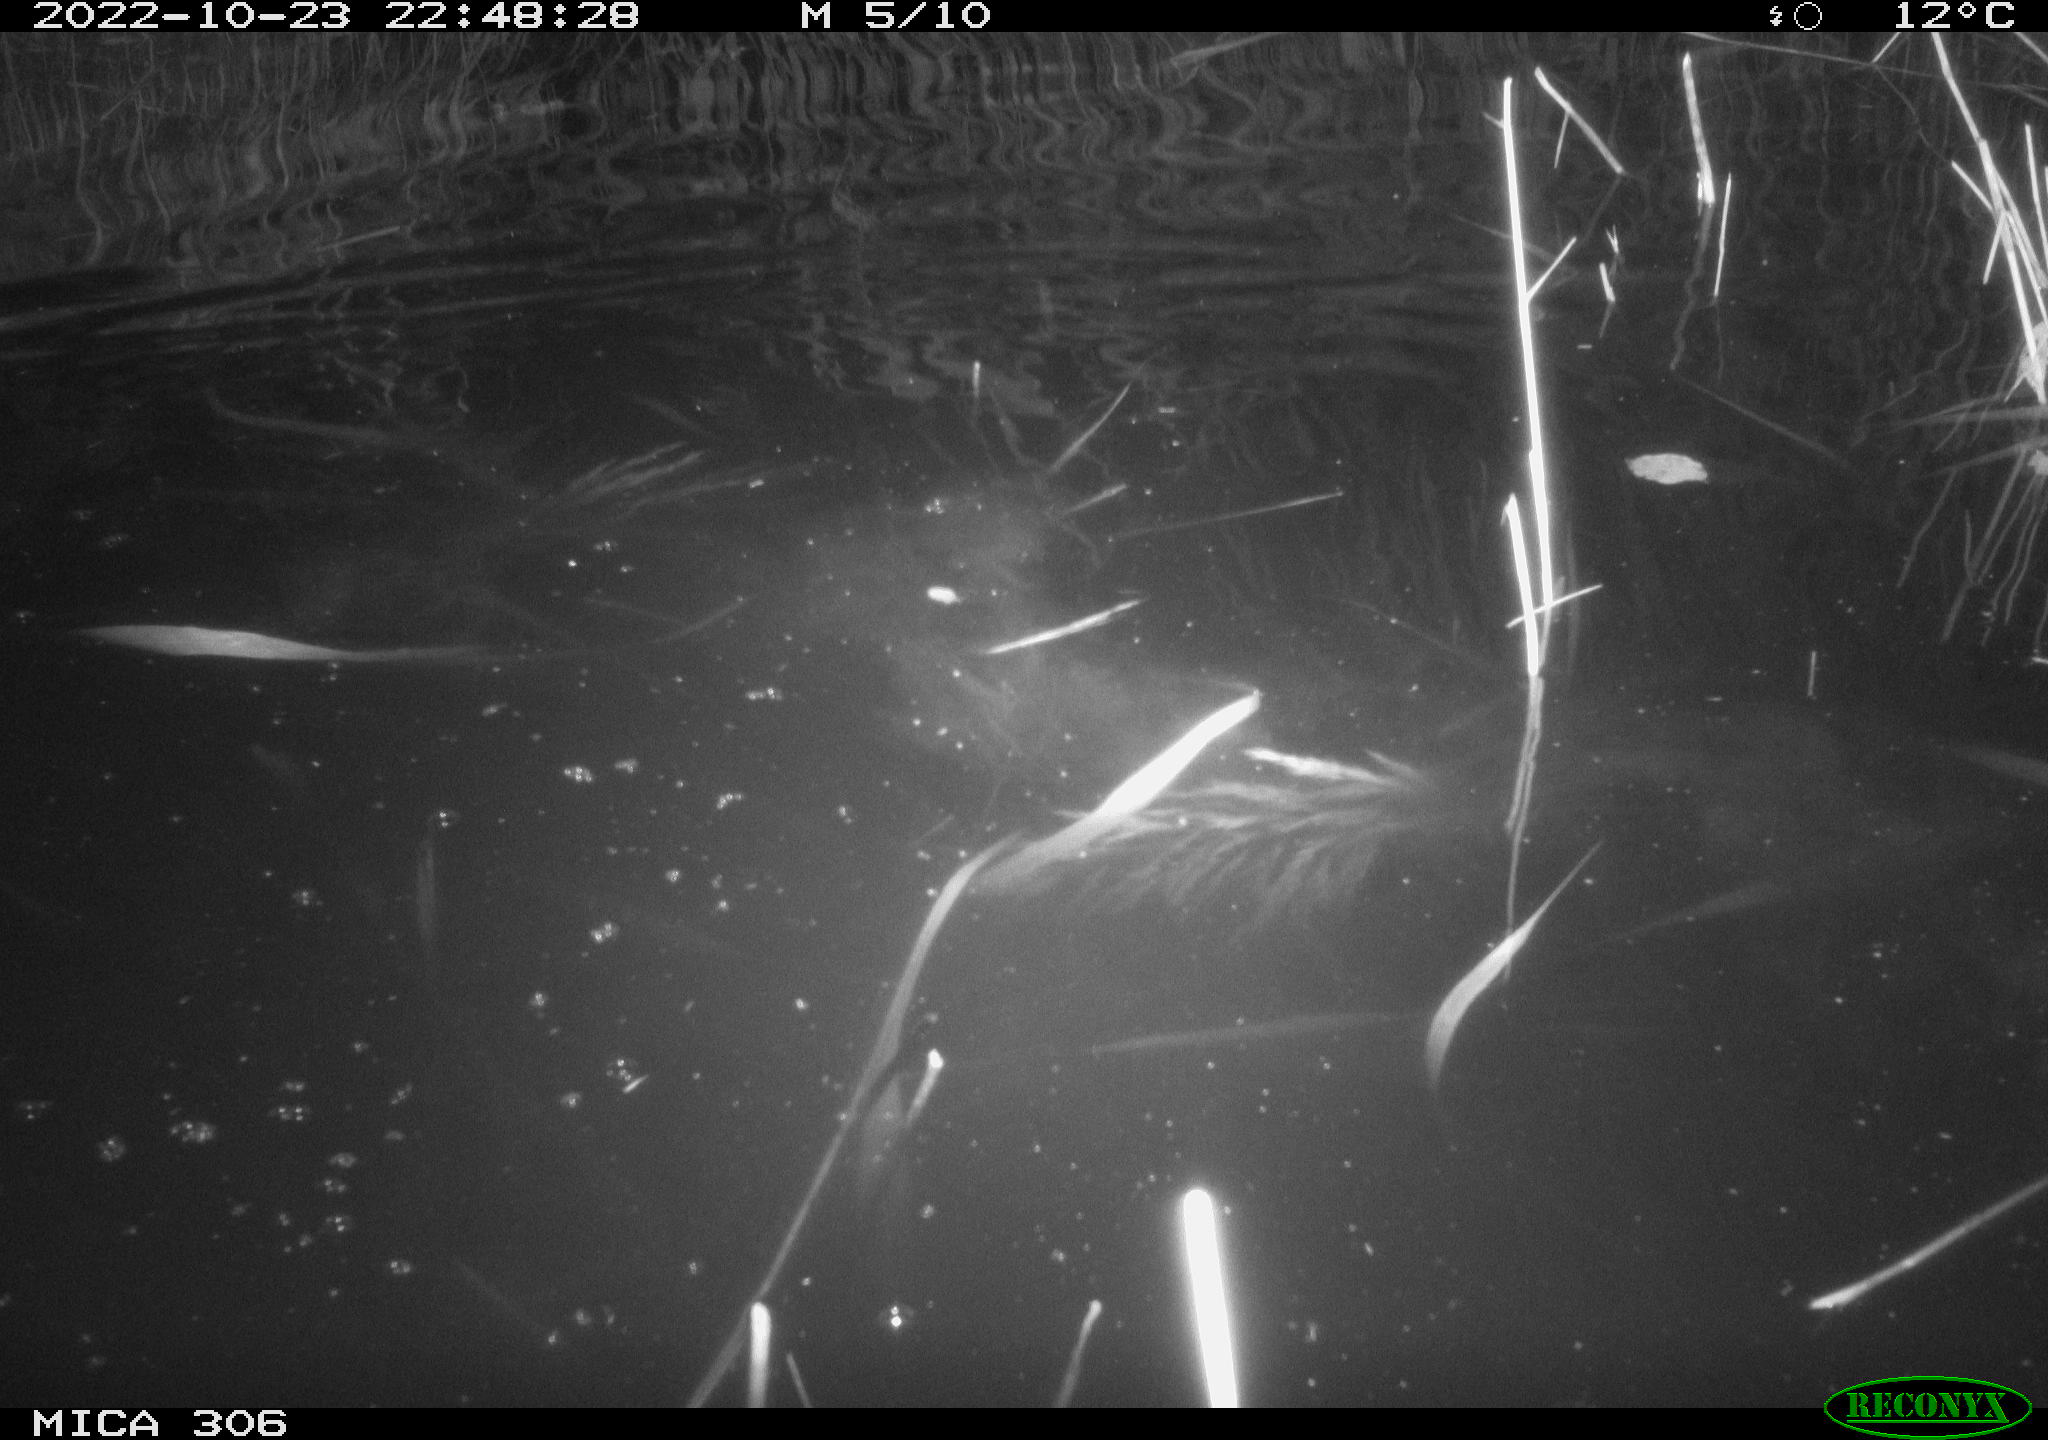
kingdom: Animalia
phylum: Chordata
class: Mammalia
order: Rodentia
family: Muridae
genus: Rattus
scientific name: Rattus norvegicus
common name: Brown rat
